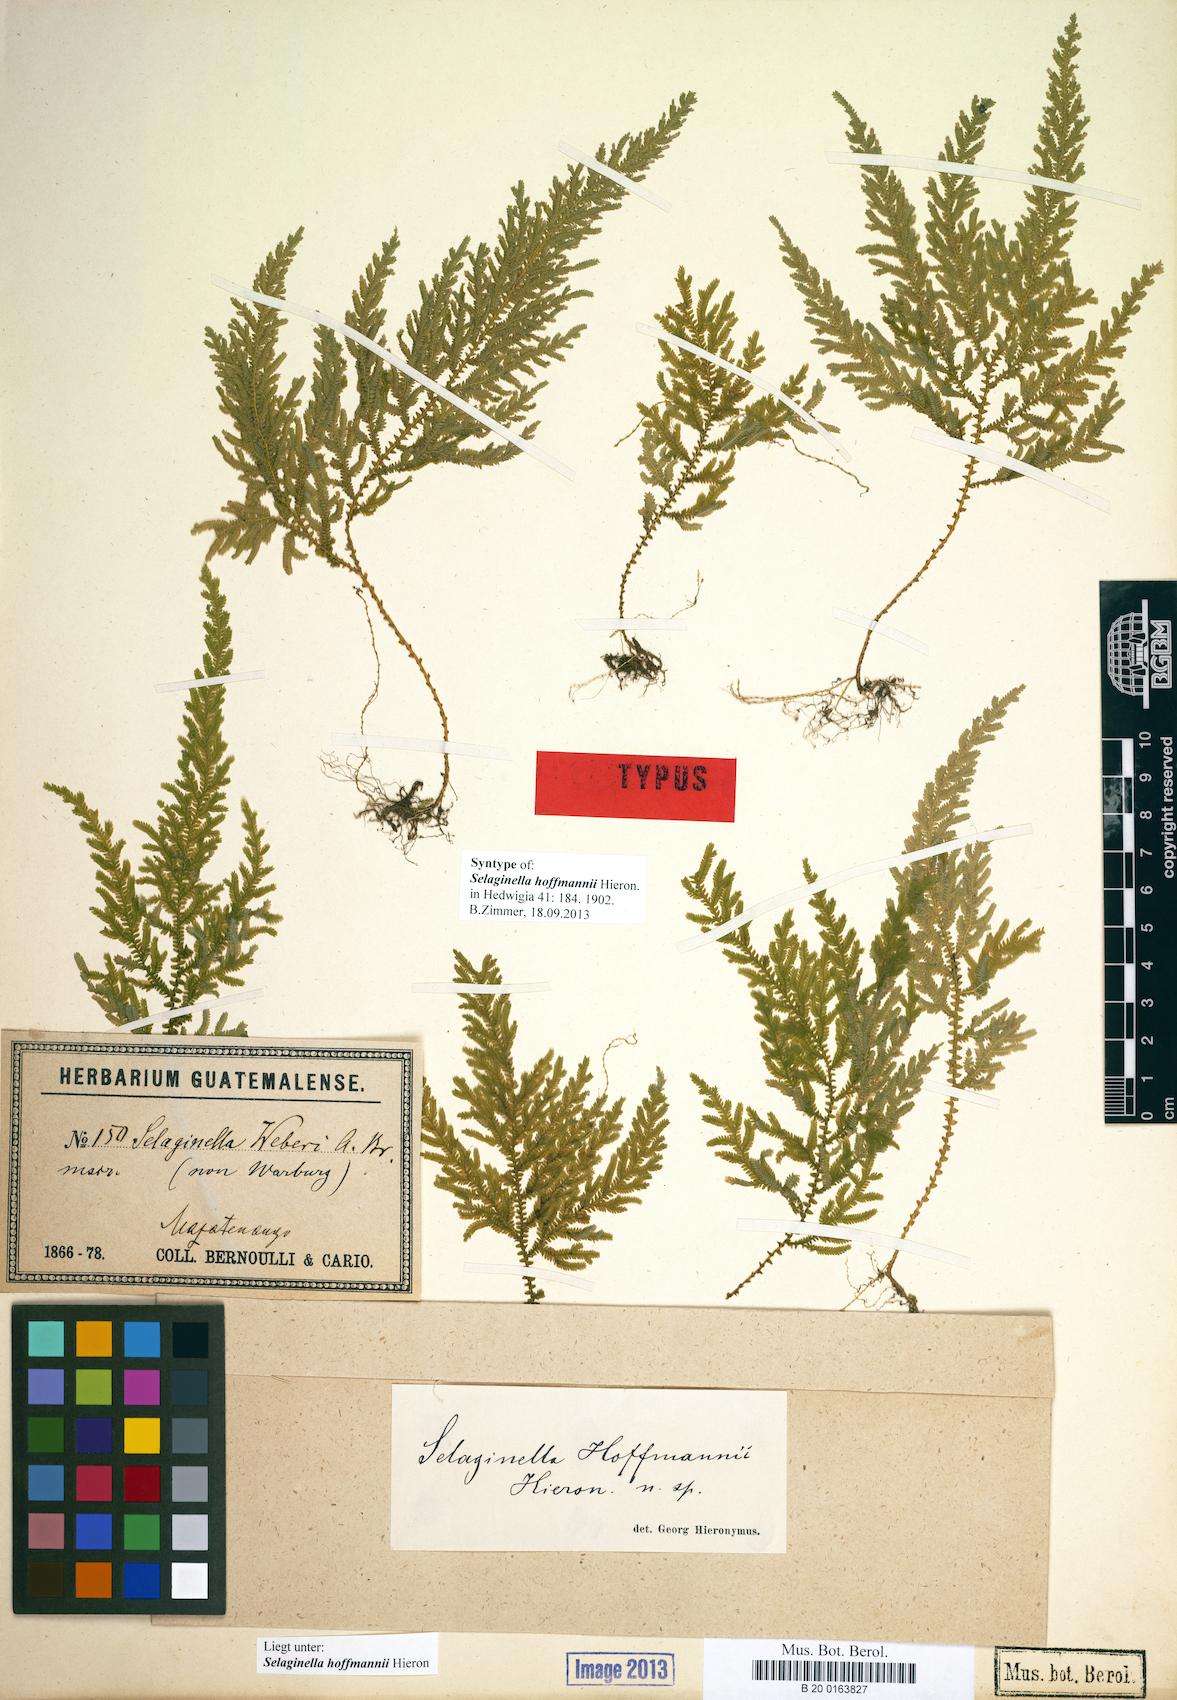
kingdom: Plantae
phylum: Tracheophyta
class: Lycopodiopsida
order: Selaginellales
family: Selaginellaceae
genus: Selaginella
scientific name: Selaginella hoffmannii
